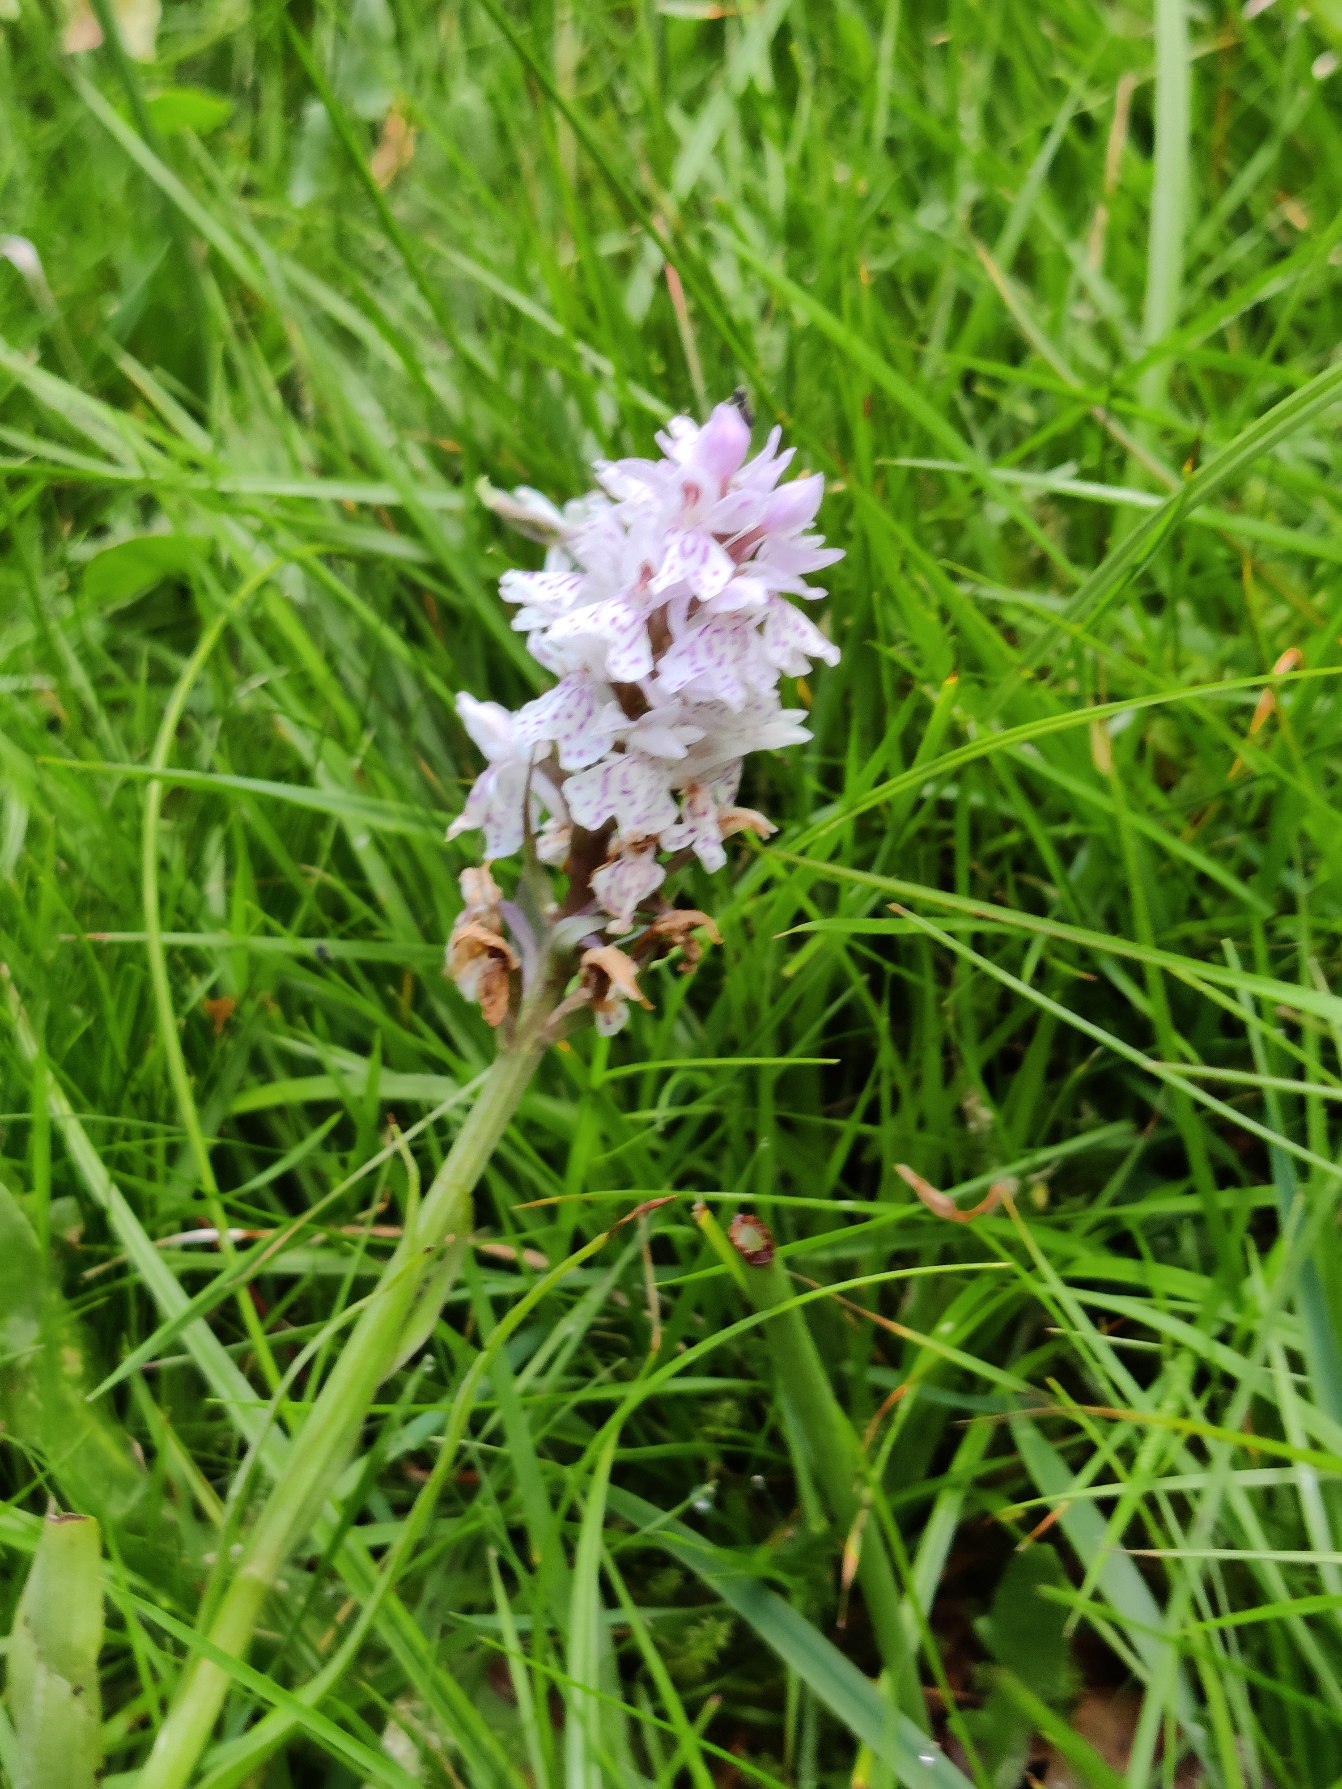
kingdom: Plantae
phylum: Tracheophyta
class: Liliopsida
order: Asparagales
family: Orchidaceae
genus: Dactylorhiza
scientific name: Dactylorhiza maculata
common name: Plettet gøgeurt
